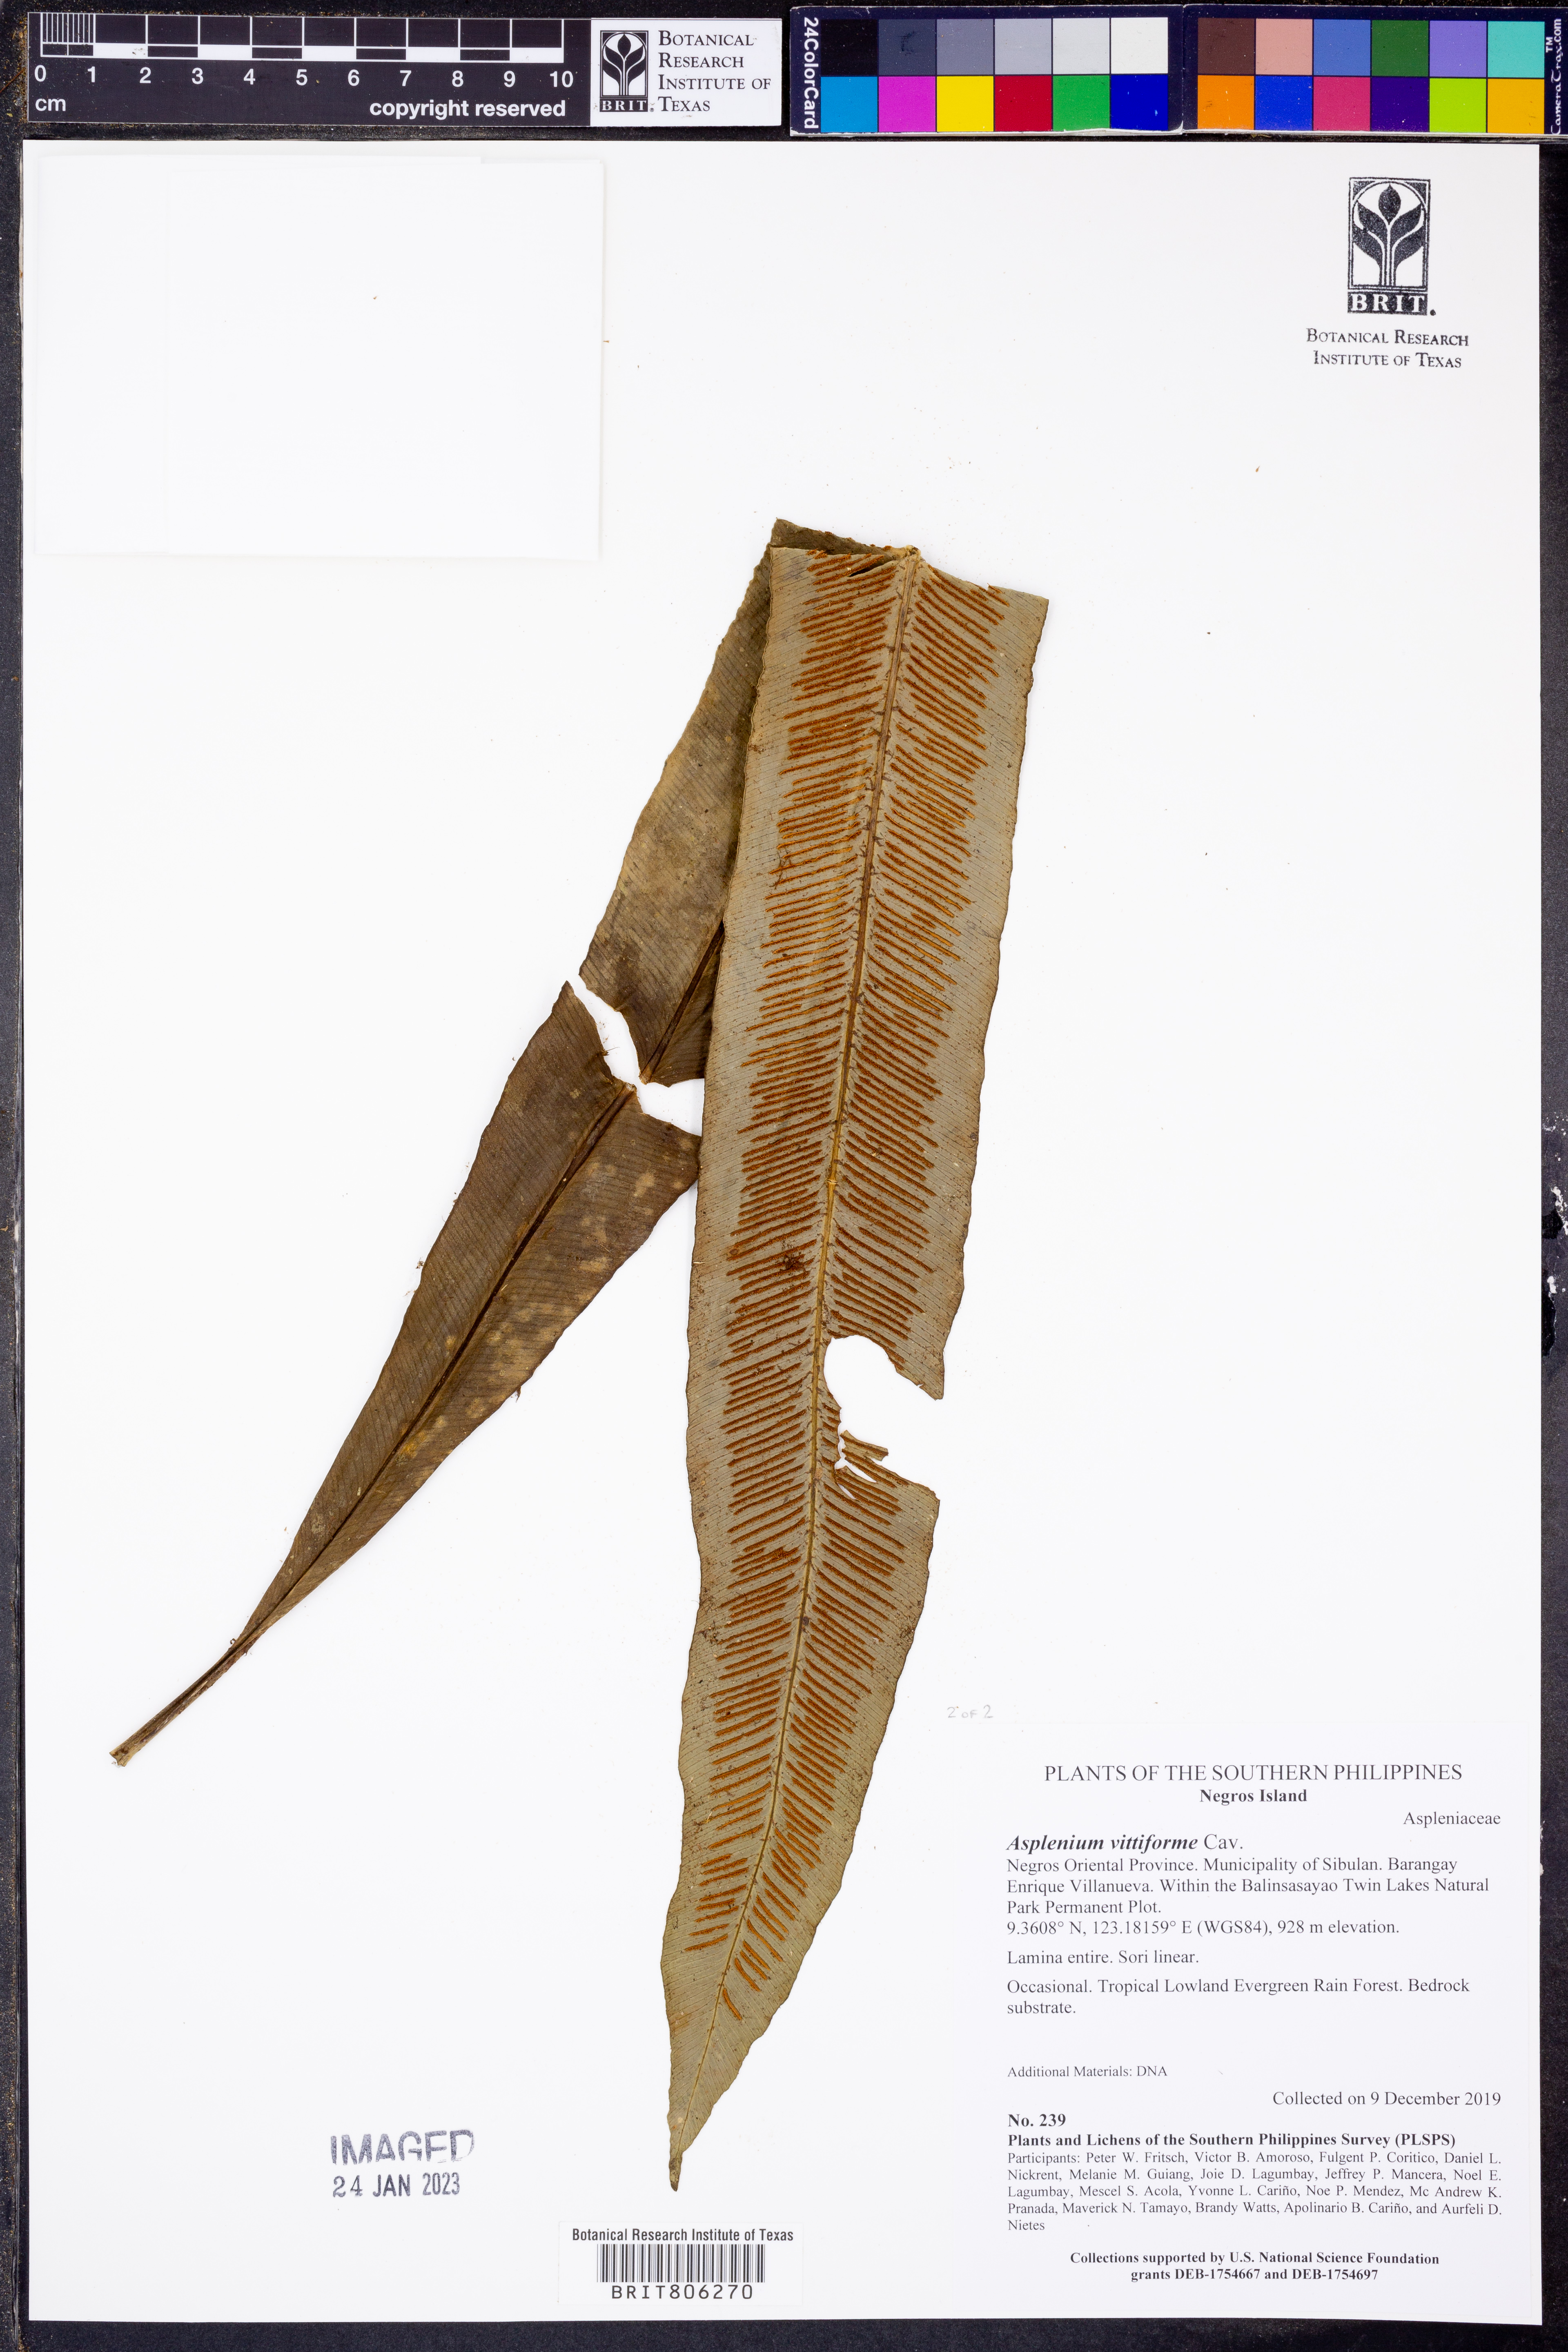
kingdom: Plantae
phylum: Tracheophyta
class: Polypodiopsida
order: Polypodiales
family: Aspleniaceae
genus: Asplenium
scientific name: Asplenium vittiforme
